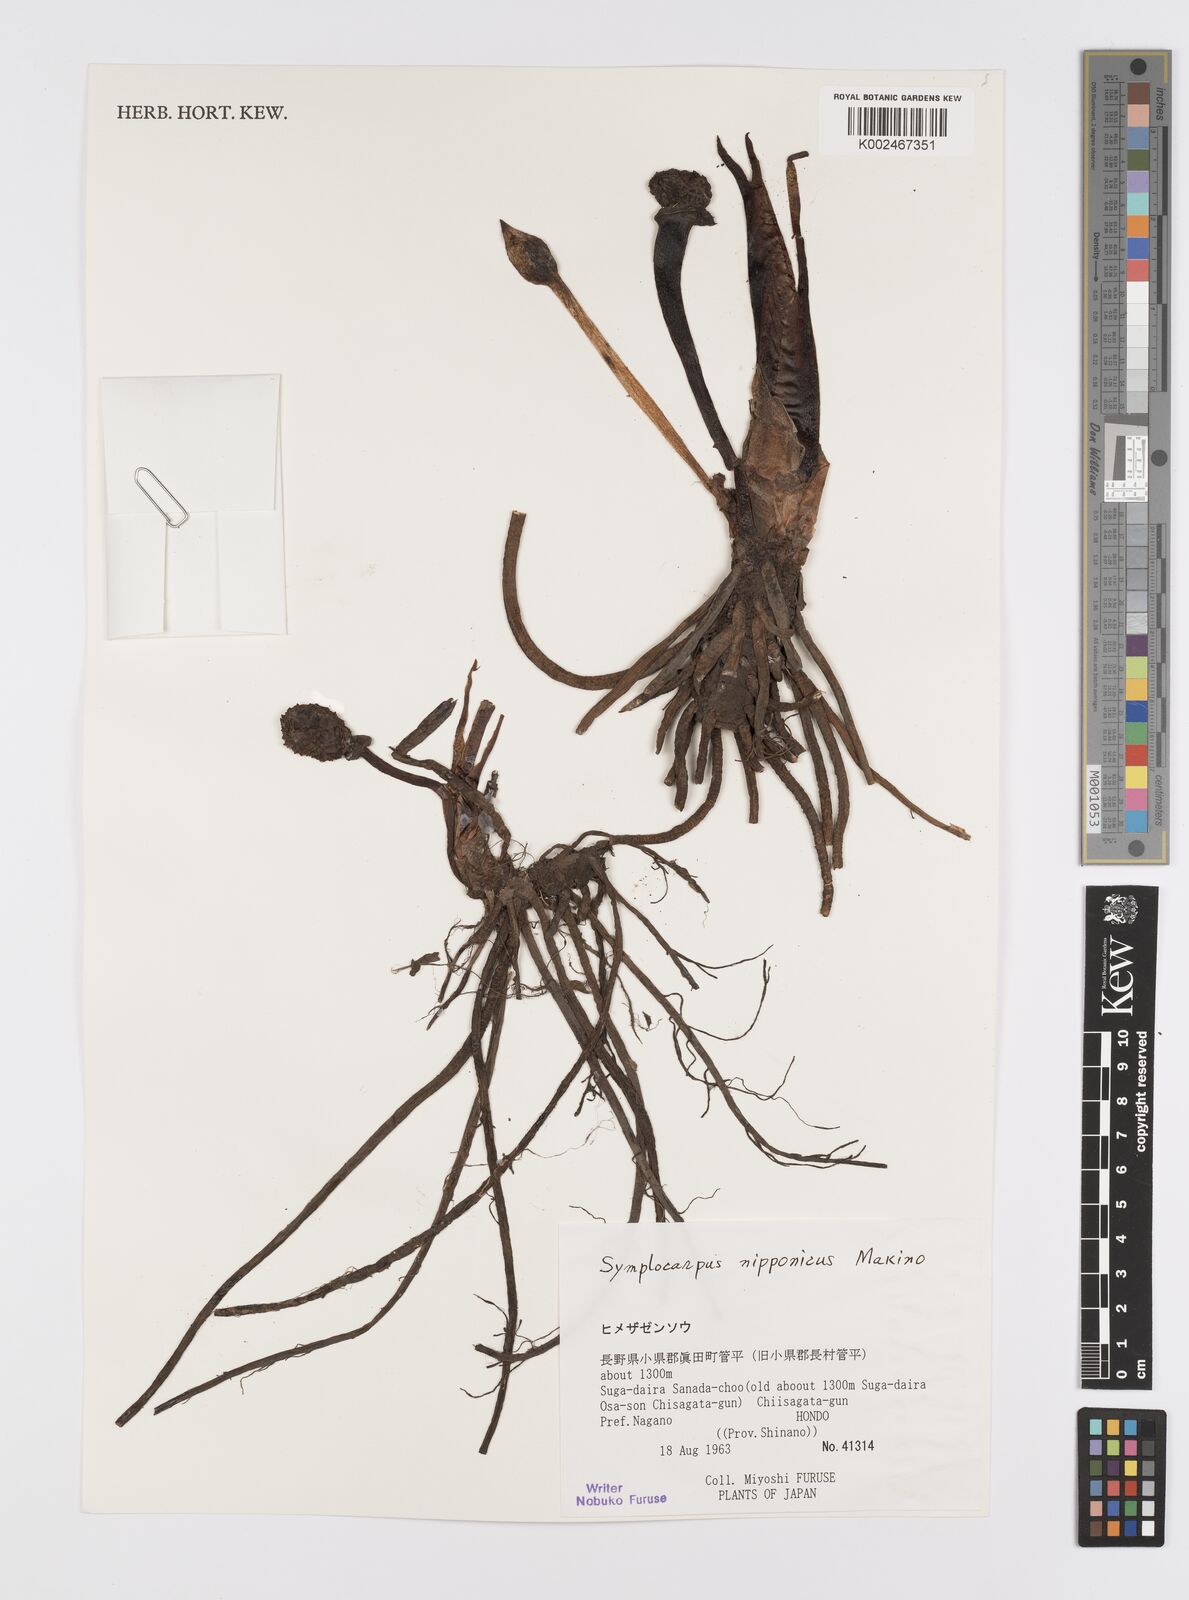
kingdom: Plantae
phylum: Tracheophyta
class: Liliopsida
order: Alismatales
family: Araceae
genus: Symplocarpus
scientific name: Symplocarpus nipponicus
